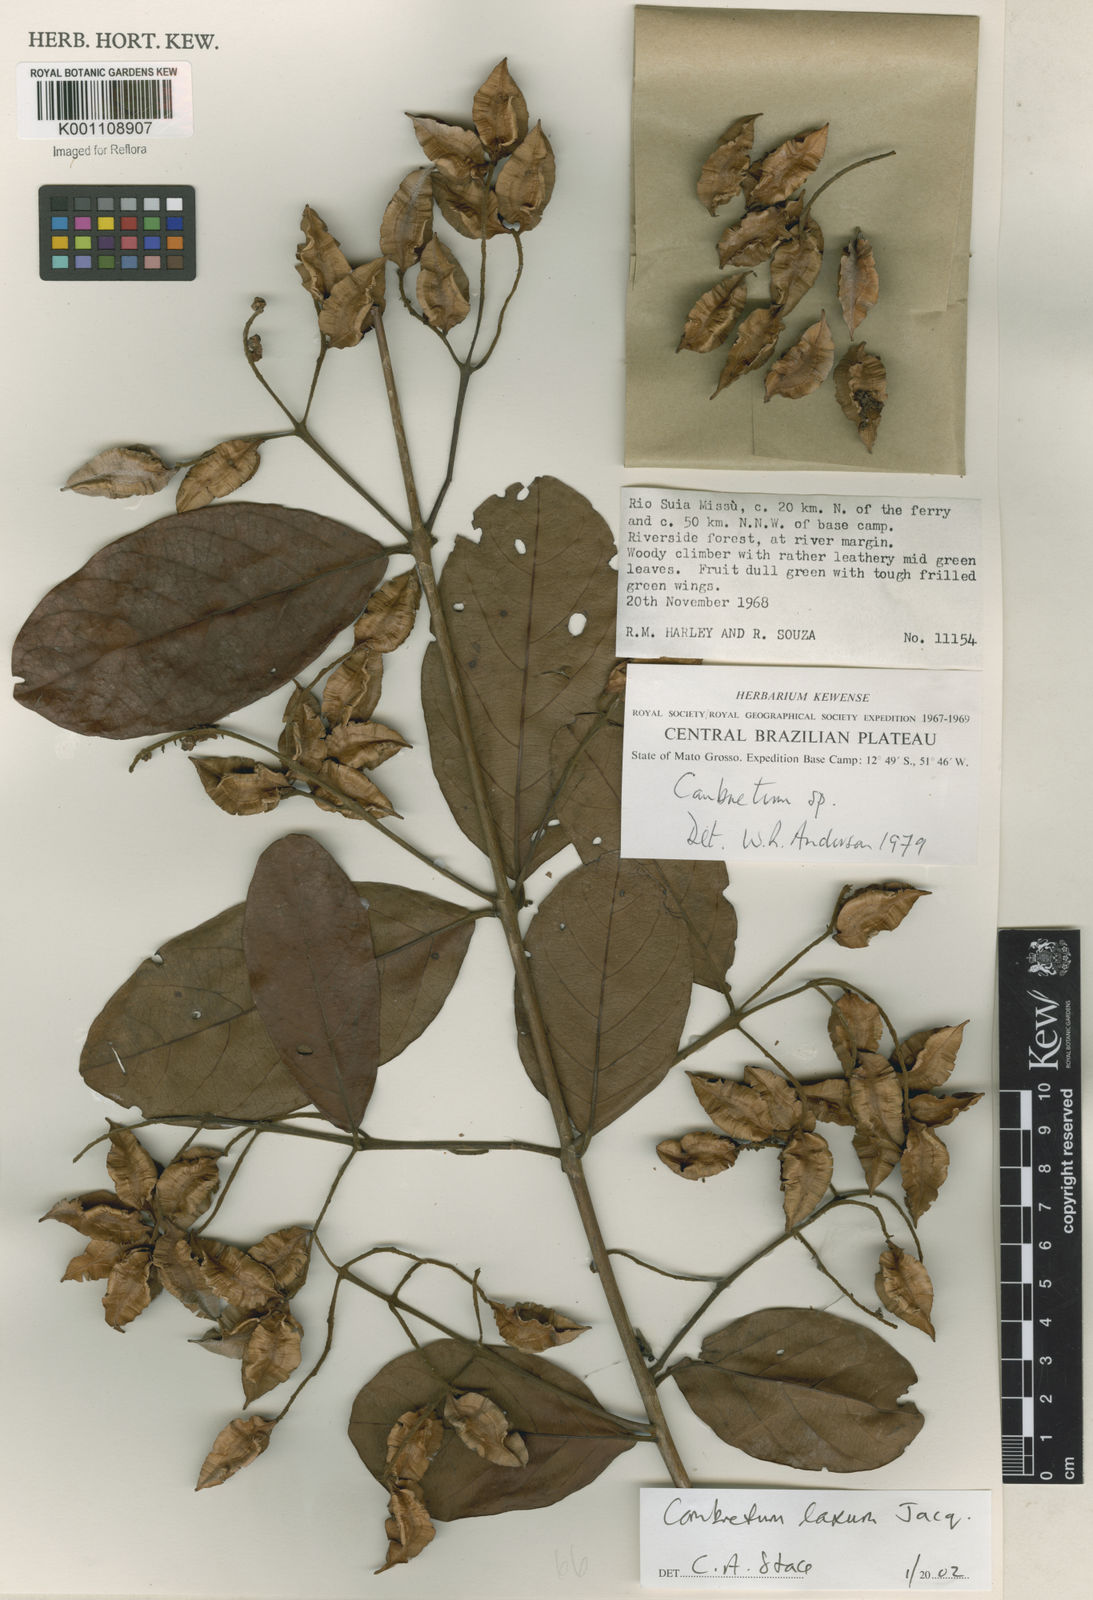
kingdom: Plantae
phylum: Tracheophyta
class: Magnoliopsida
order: Myrtales
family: Combretaceae
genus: Combretum
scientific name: Combretum laxum
